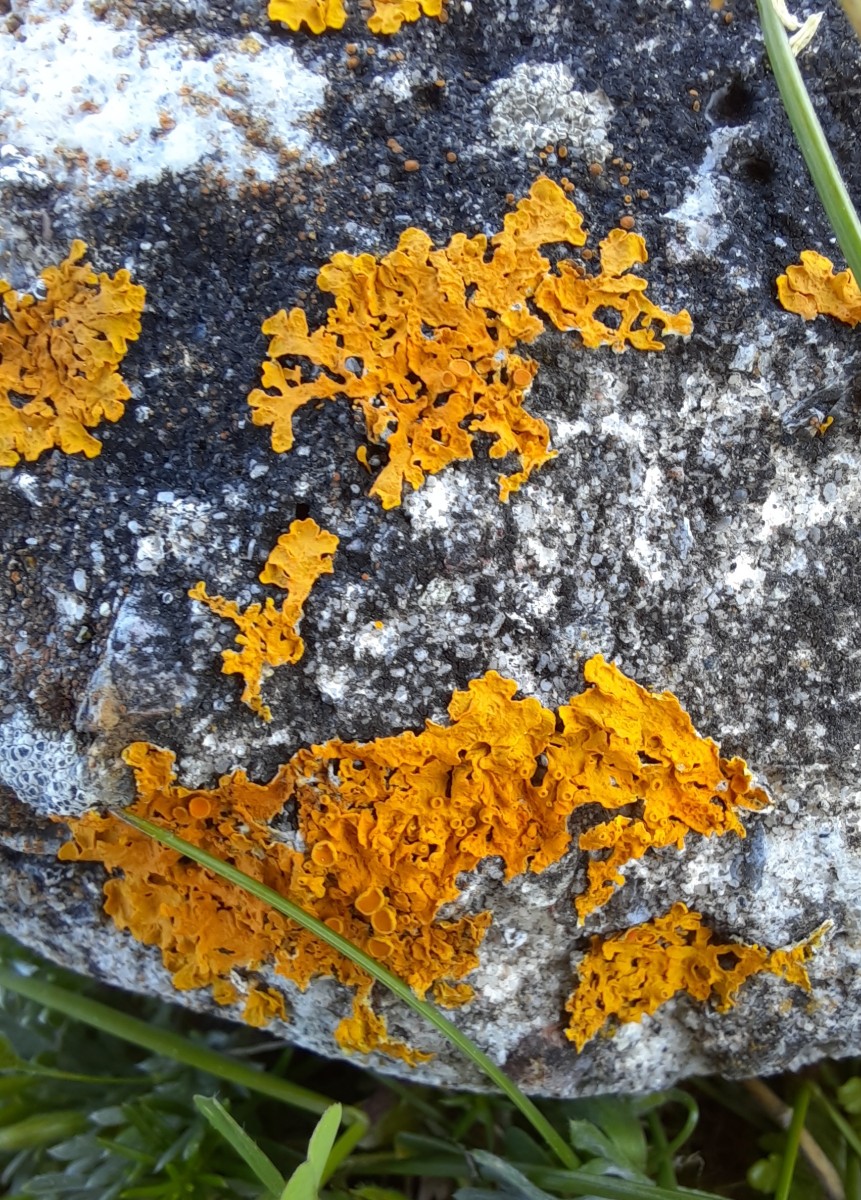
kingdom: Fungi
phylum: Ascomycota
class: Lecanoromycetes
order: Teloschistales
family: Teloschistaceae
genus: Xanthoria
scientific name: Xanthoria parietina
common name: almindelig væggelav
